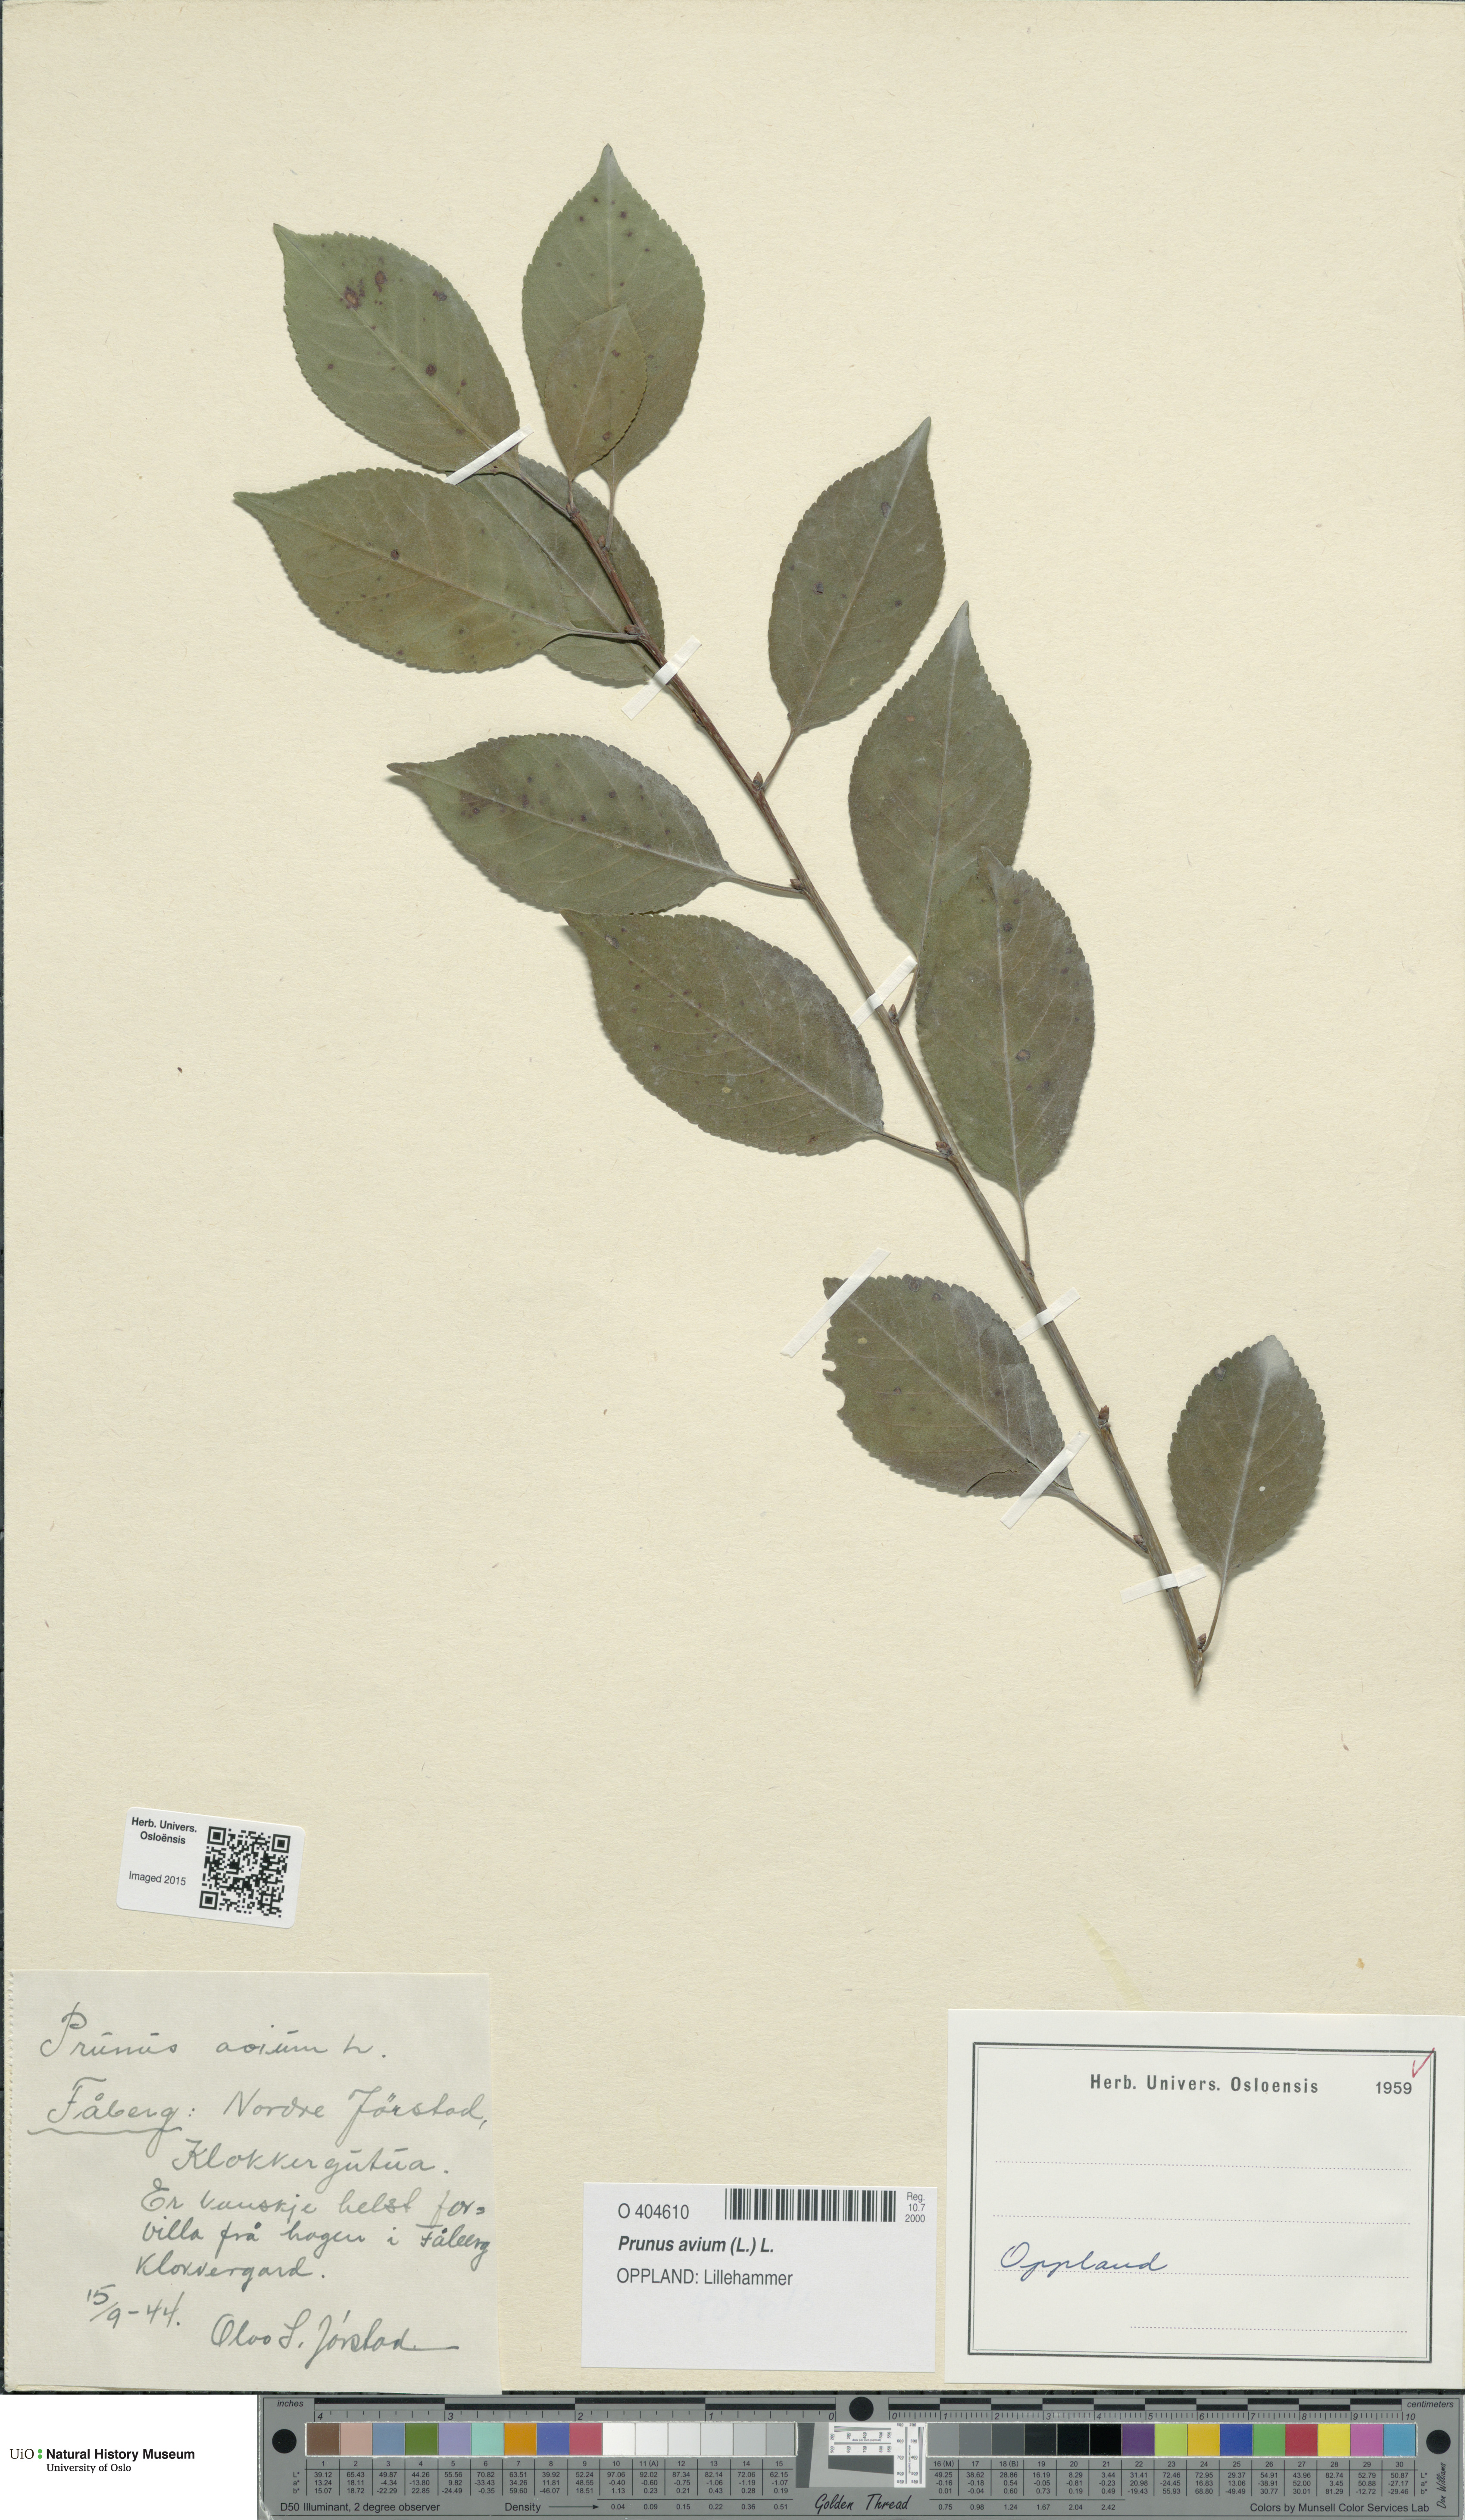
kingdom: Plantae
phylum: Tracheophyta
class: Magnoliopsida
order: Rosales
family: Rosaceae
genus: Prunus
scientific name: Prunus avium
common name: Sweet cherry
